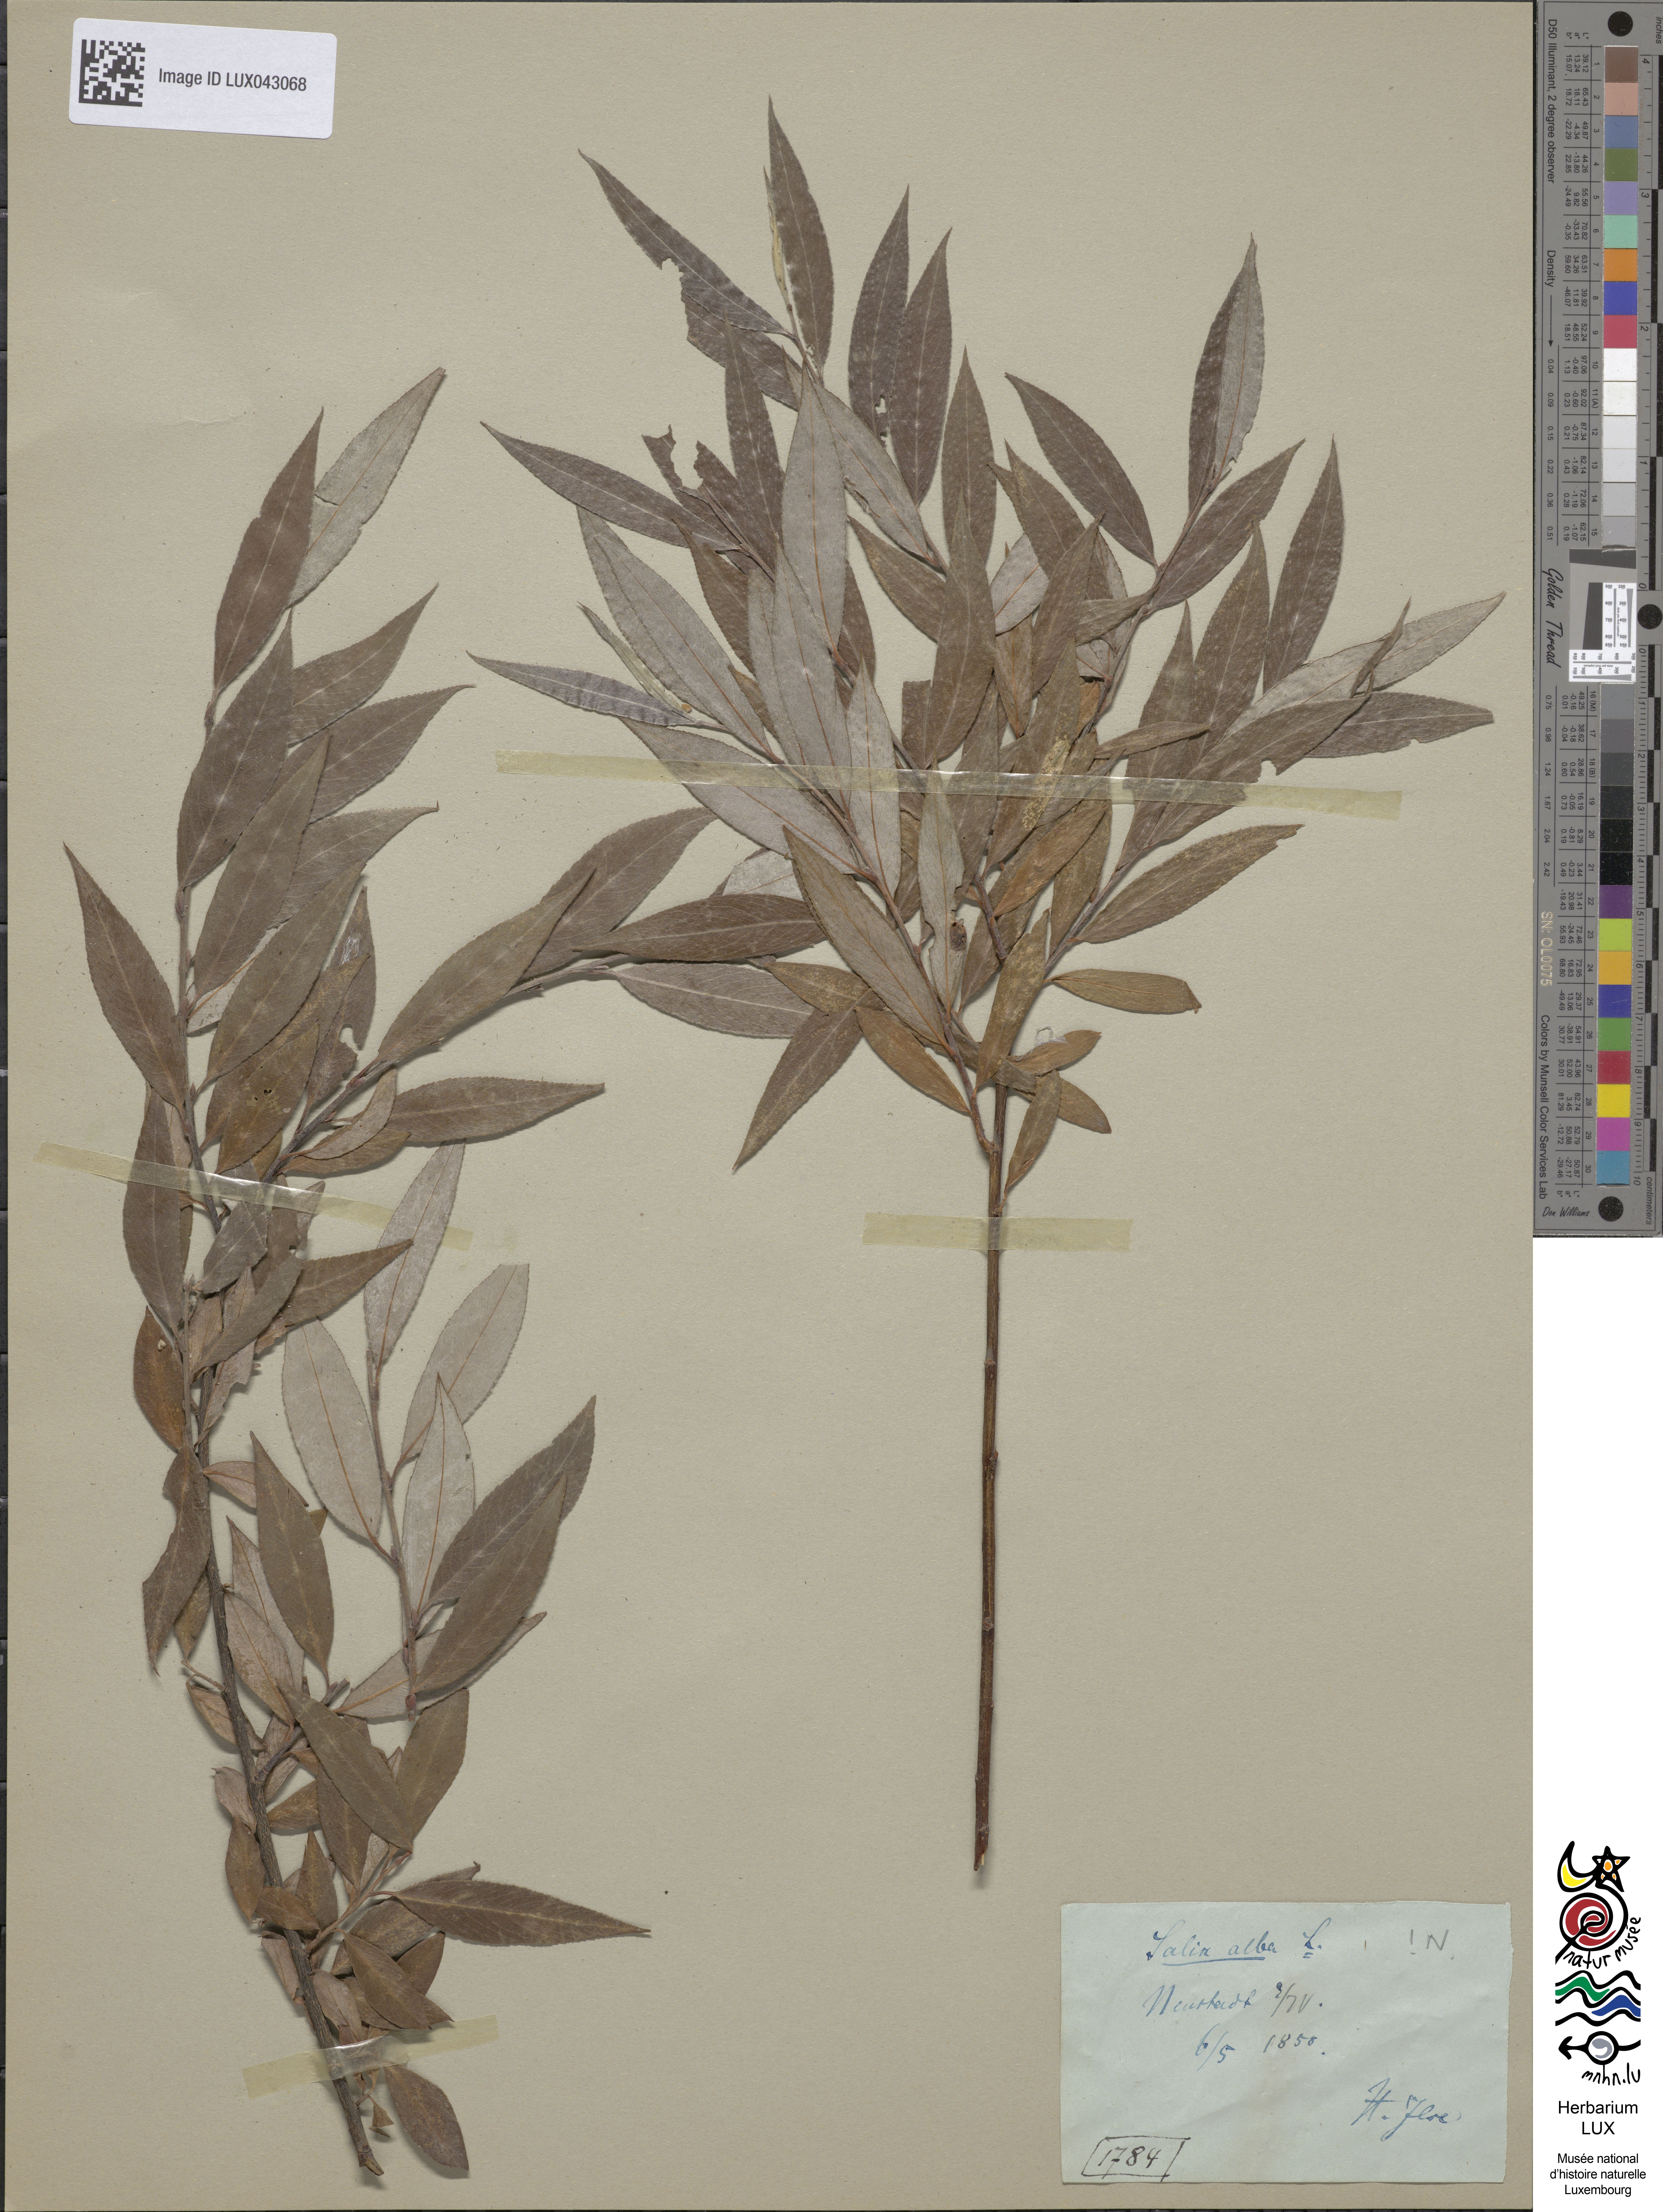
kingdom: Plantae
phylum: Tracheophyta
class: Magnoliopsida
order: Malpighiales
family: Salicaceae
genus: Salix
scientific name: Salix alba
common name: White willow
